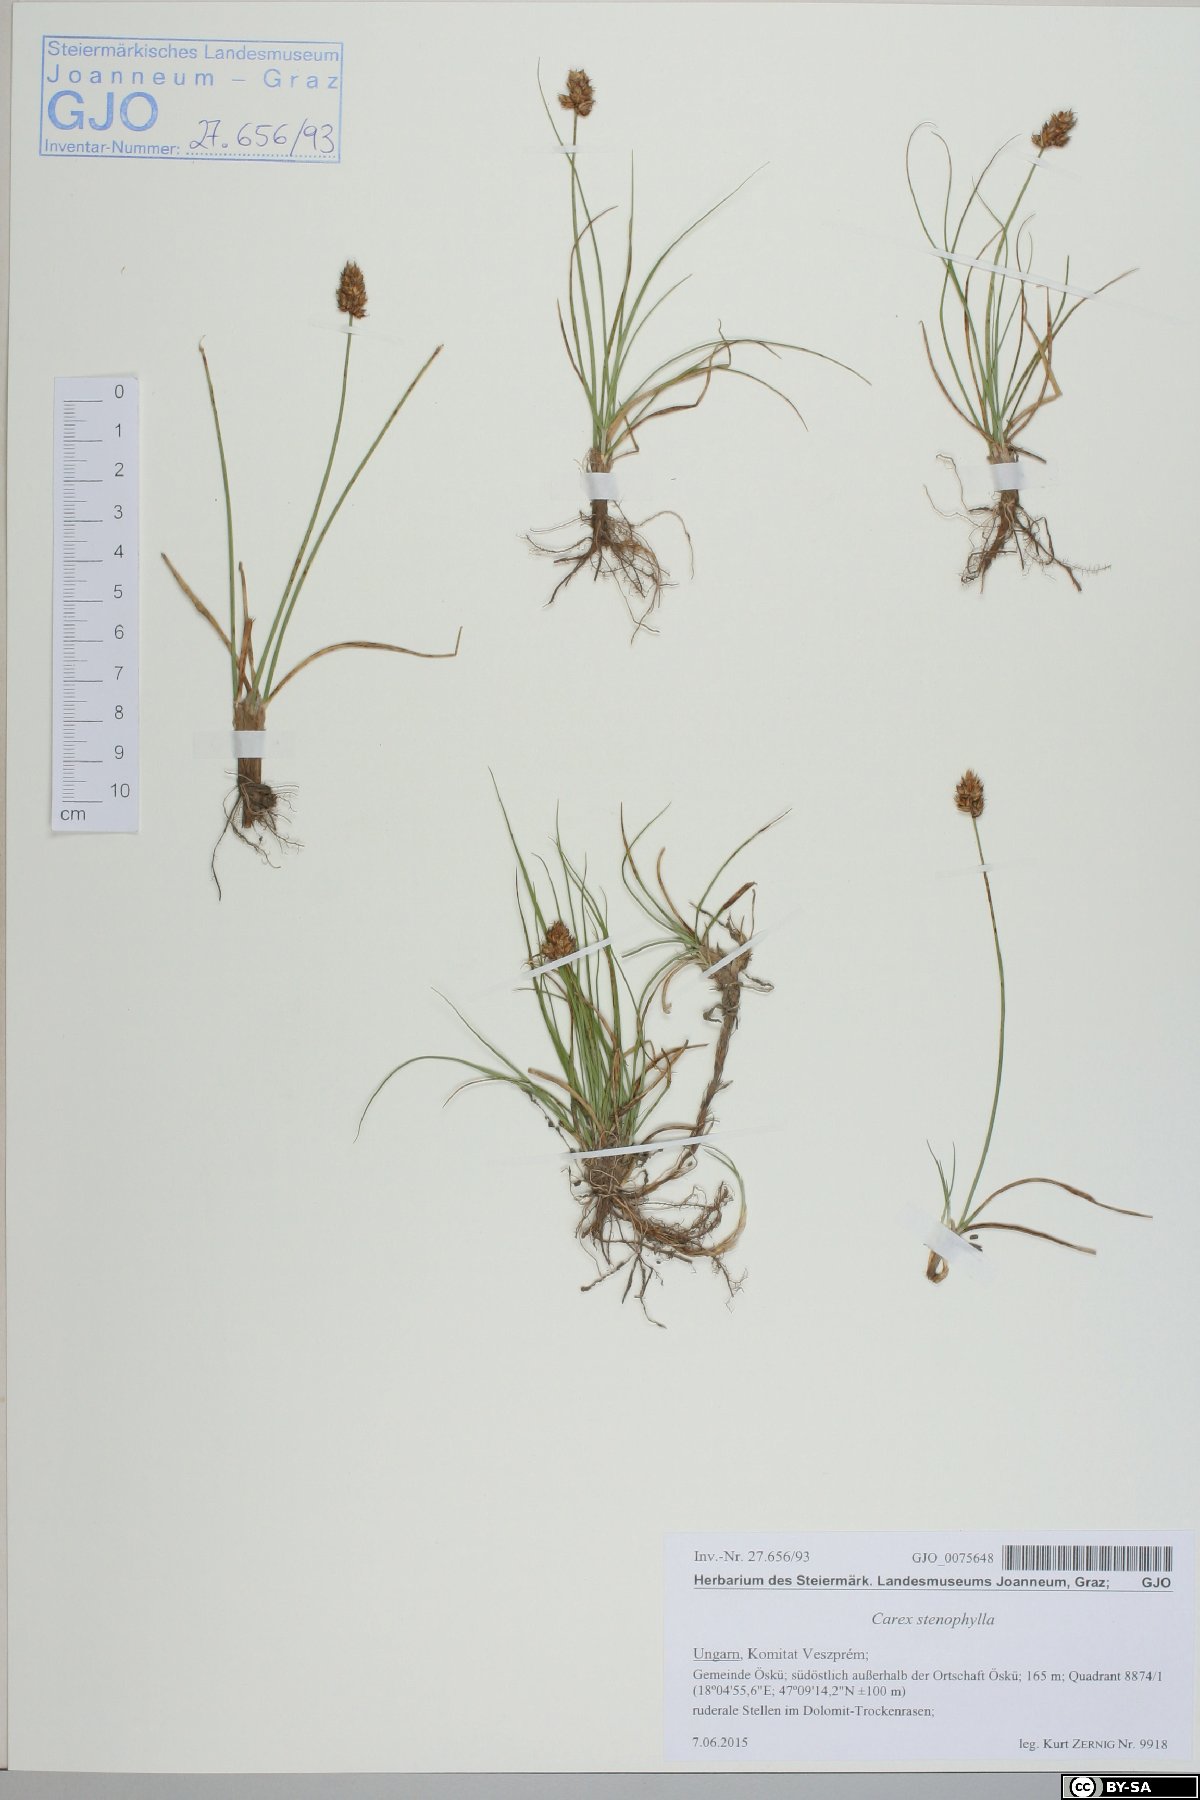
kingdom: Plantae
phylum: Tracheophyta
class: Liliopsida
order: Poales
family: Cyperaceae
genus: Carex
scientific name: Carex stenophylla
